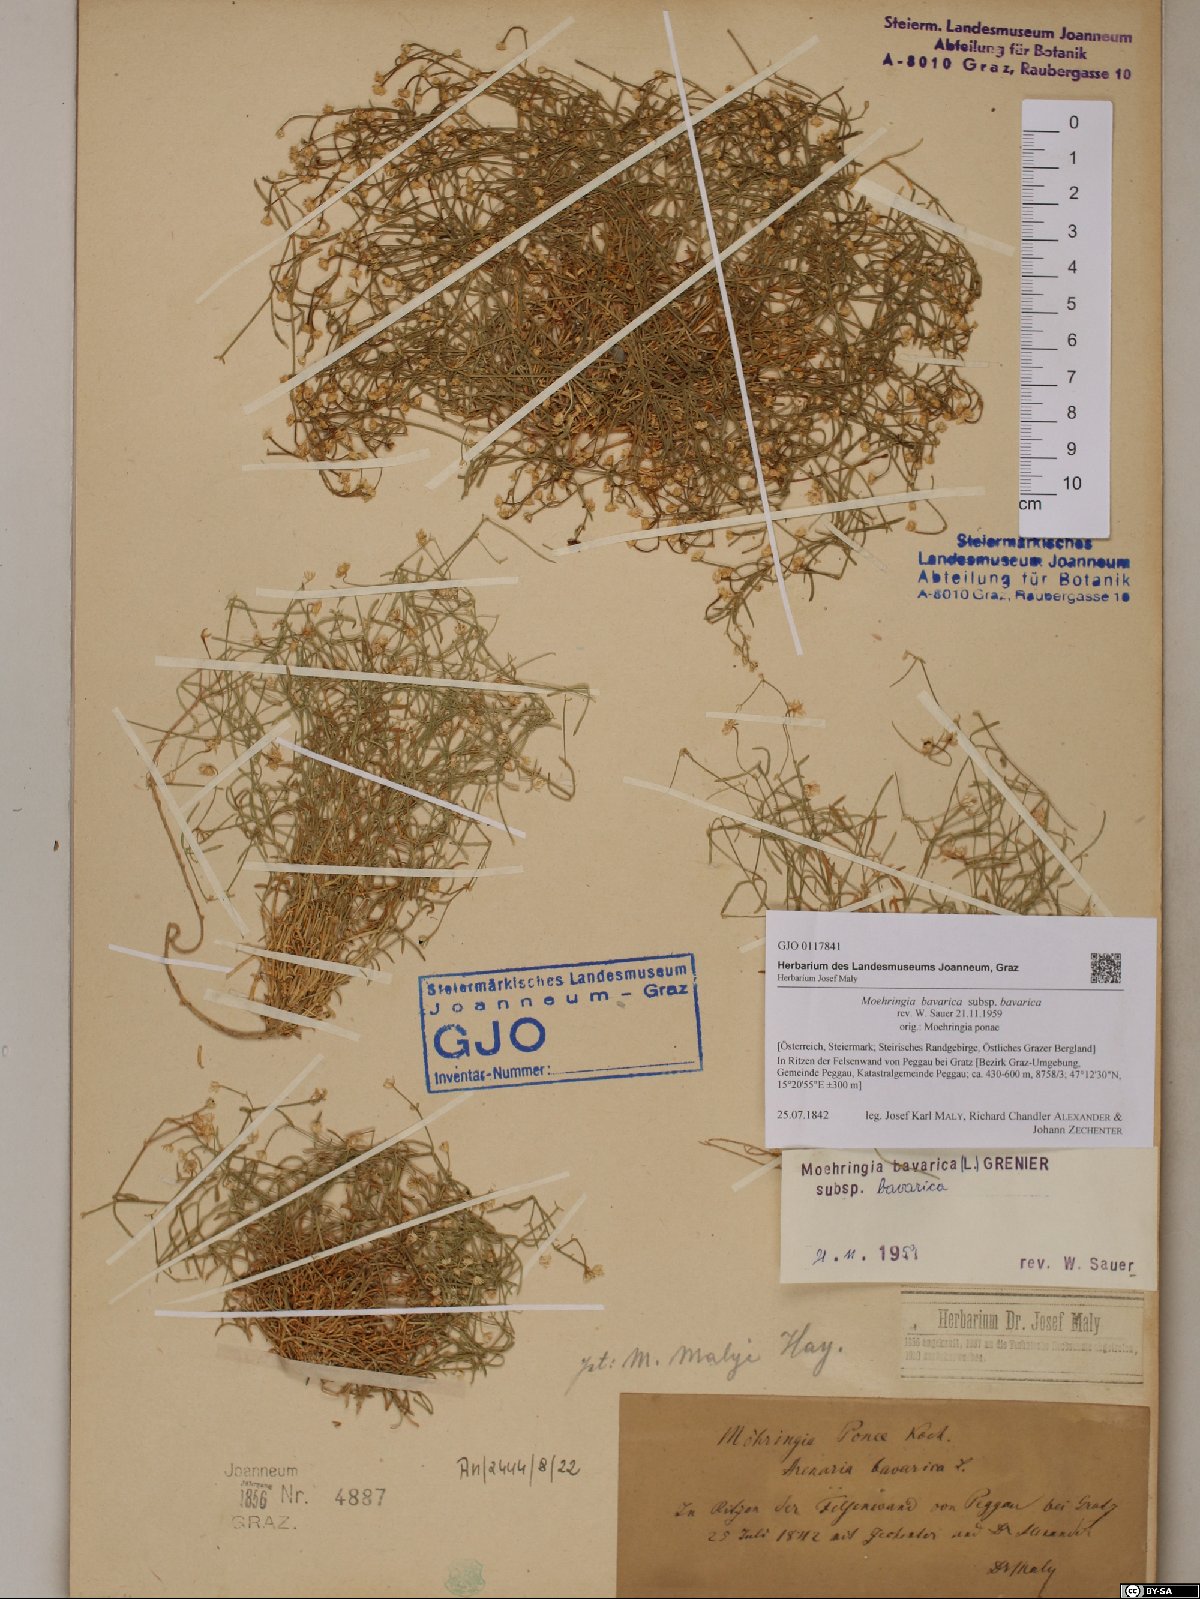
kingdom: Plantae
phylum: Tracheophyta
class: Magnoliopsida
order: Caryophyllales
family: Caryophyllaceae
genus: Moehringia
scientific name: Moehringia bavarica
